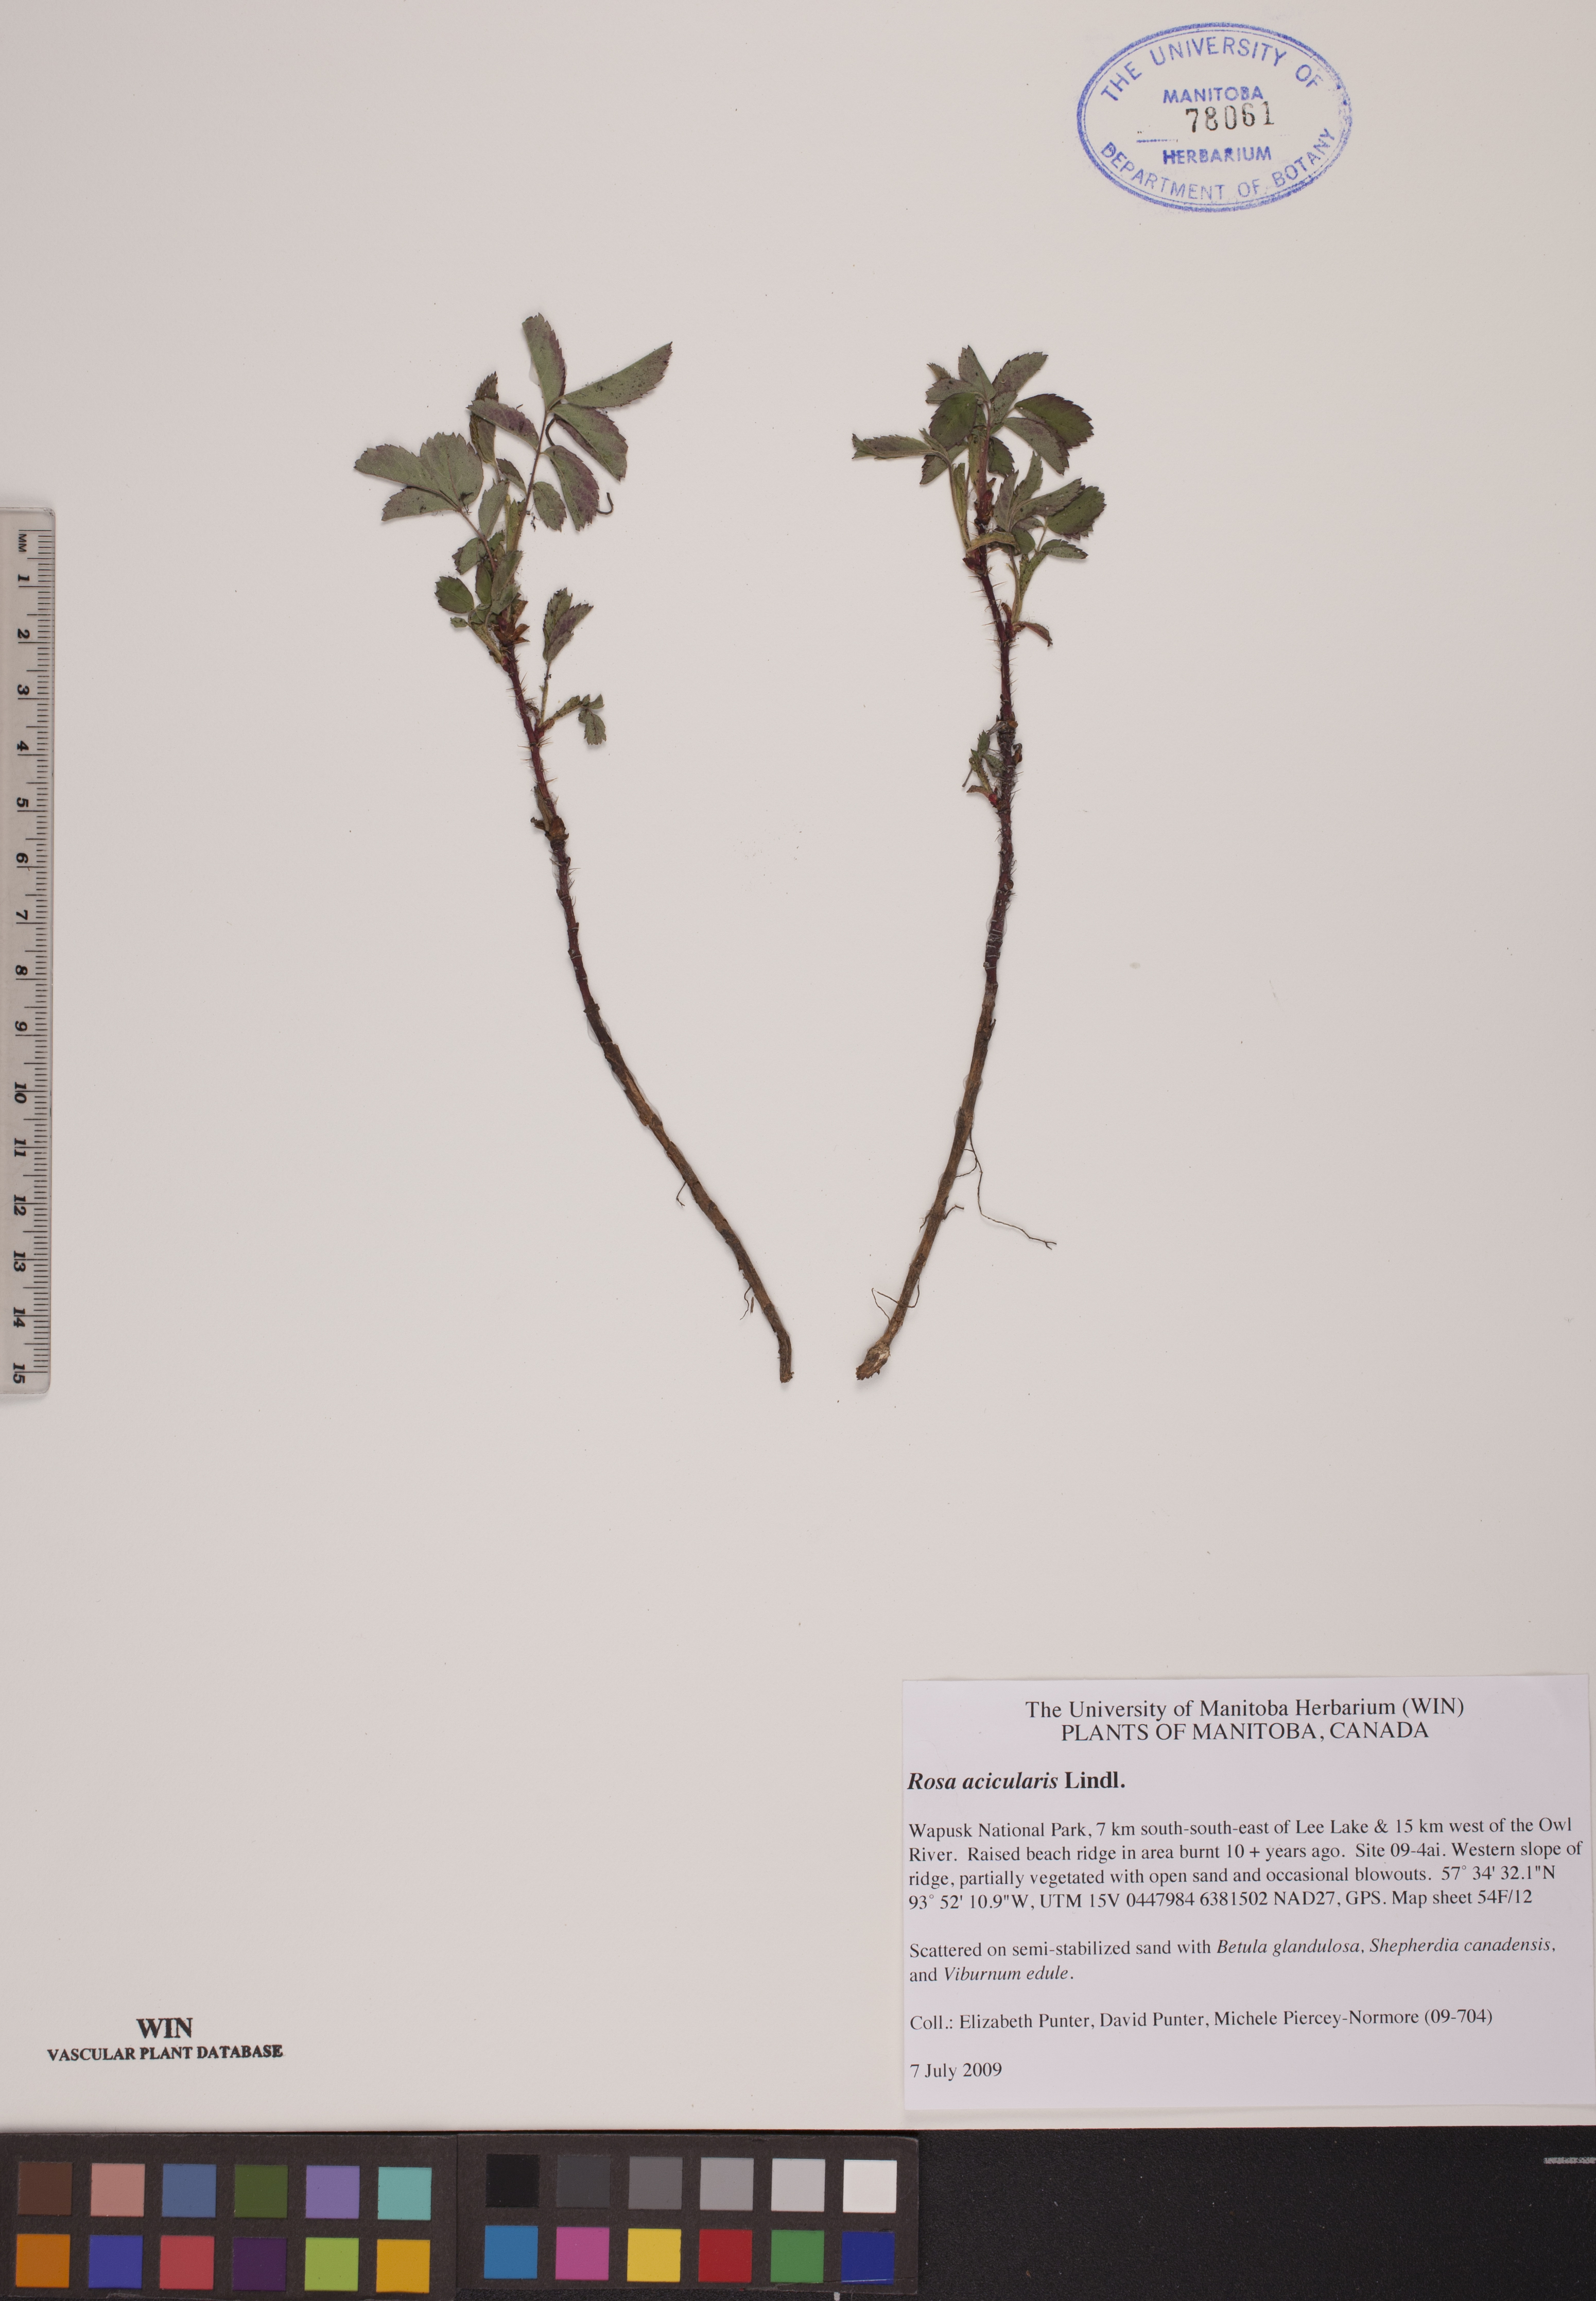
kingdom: Plantae
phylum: Tracheophyta
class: Magnoliopsida
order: Rosales
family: Rosaceae
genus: Rosa
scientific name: Rosa acicularis
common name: Prickly rose
